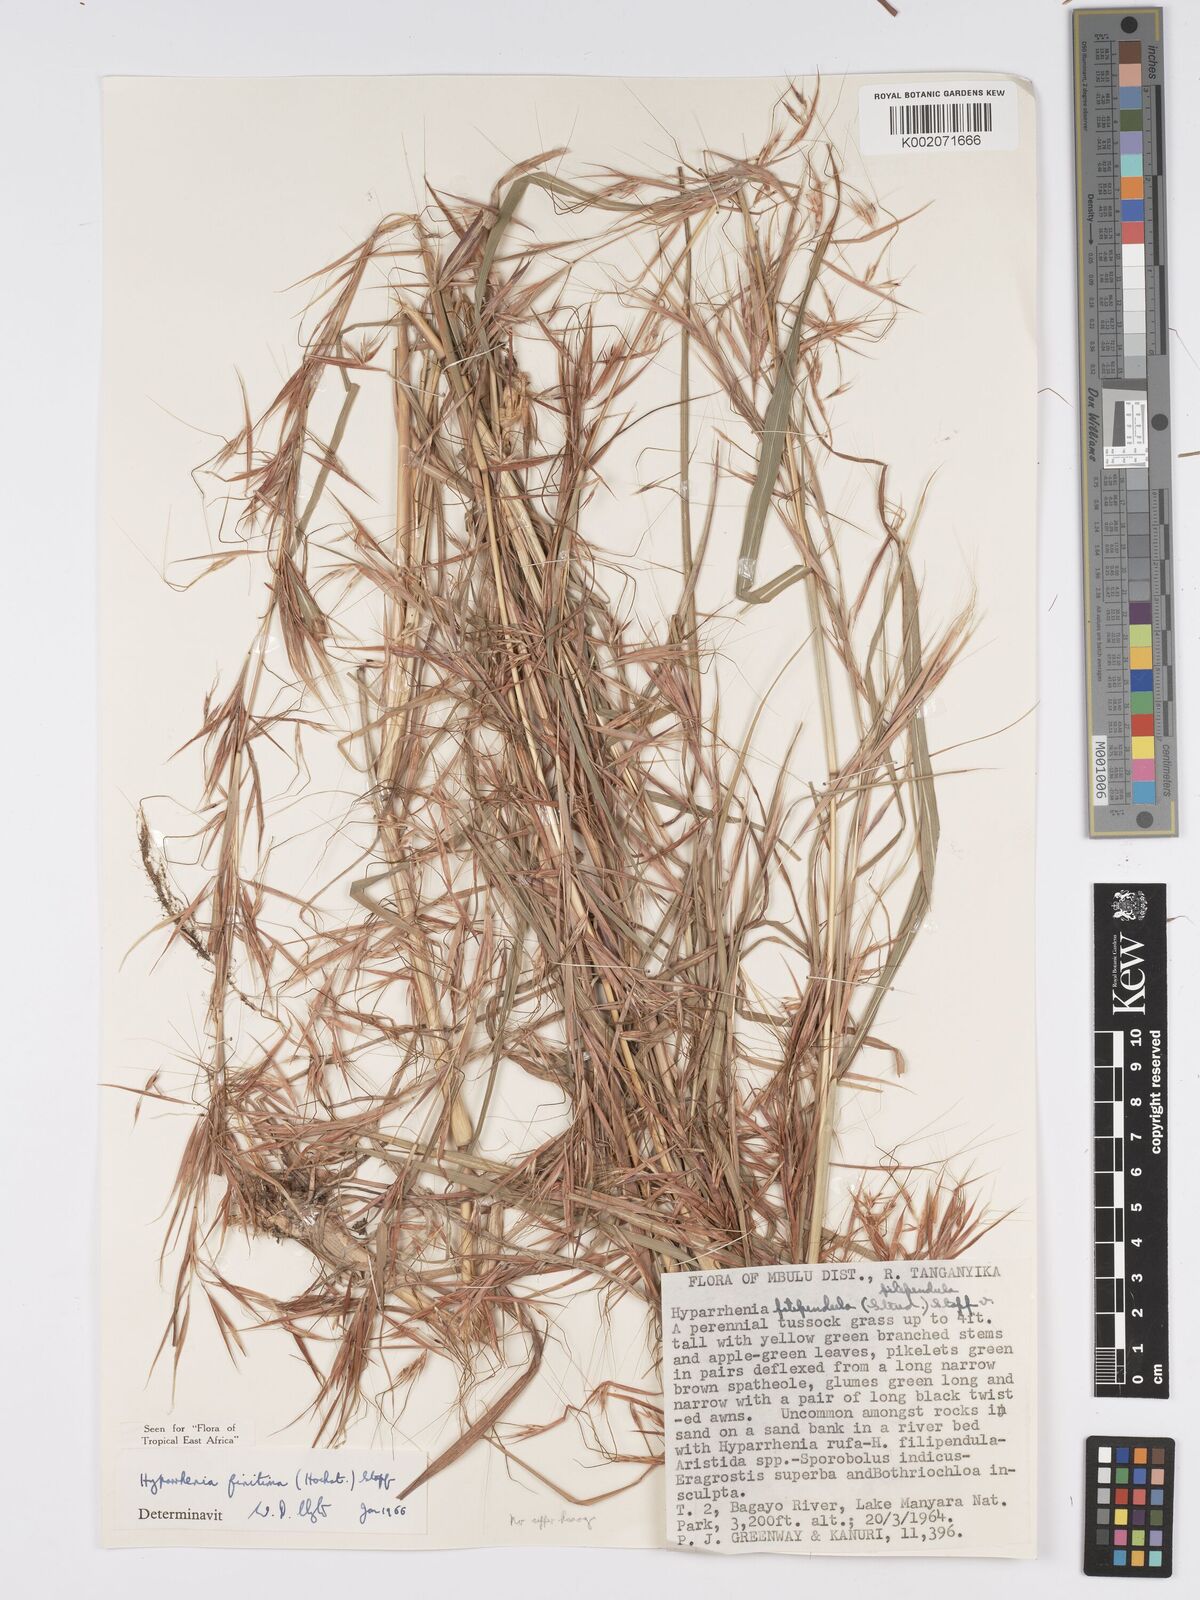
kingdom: Plantae
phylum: Tracheophyta
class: Liliopsida
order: Poales
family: Poaceae
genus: Hyparrhenia
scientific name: Hyparrhenia finitima
